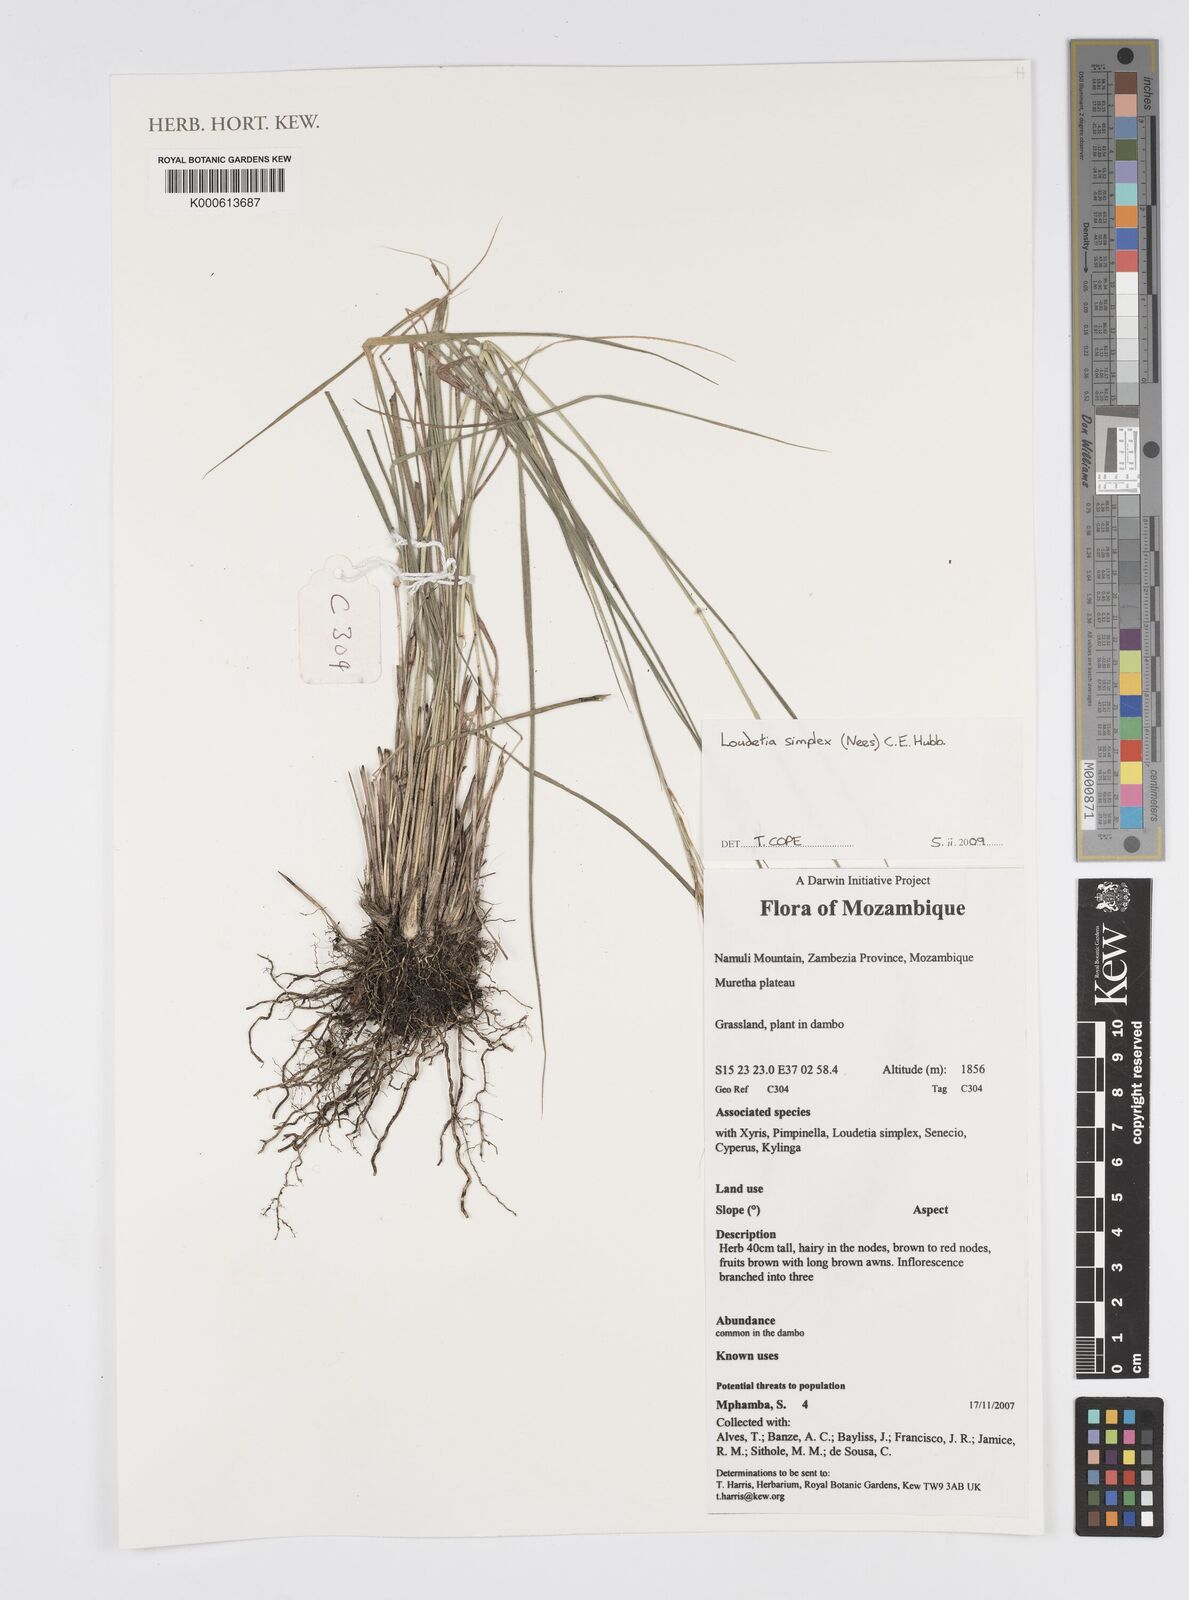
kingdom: Plantae
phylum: Tracheophyta
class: Liliopsida
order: Poales
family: Poaceae
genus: Loudetia
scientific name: Loudetia simplex
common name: Common russet grass
